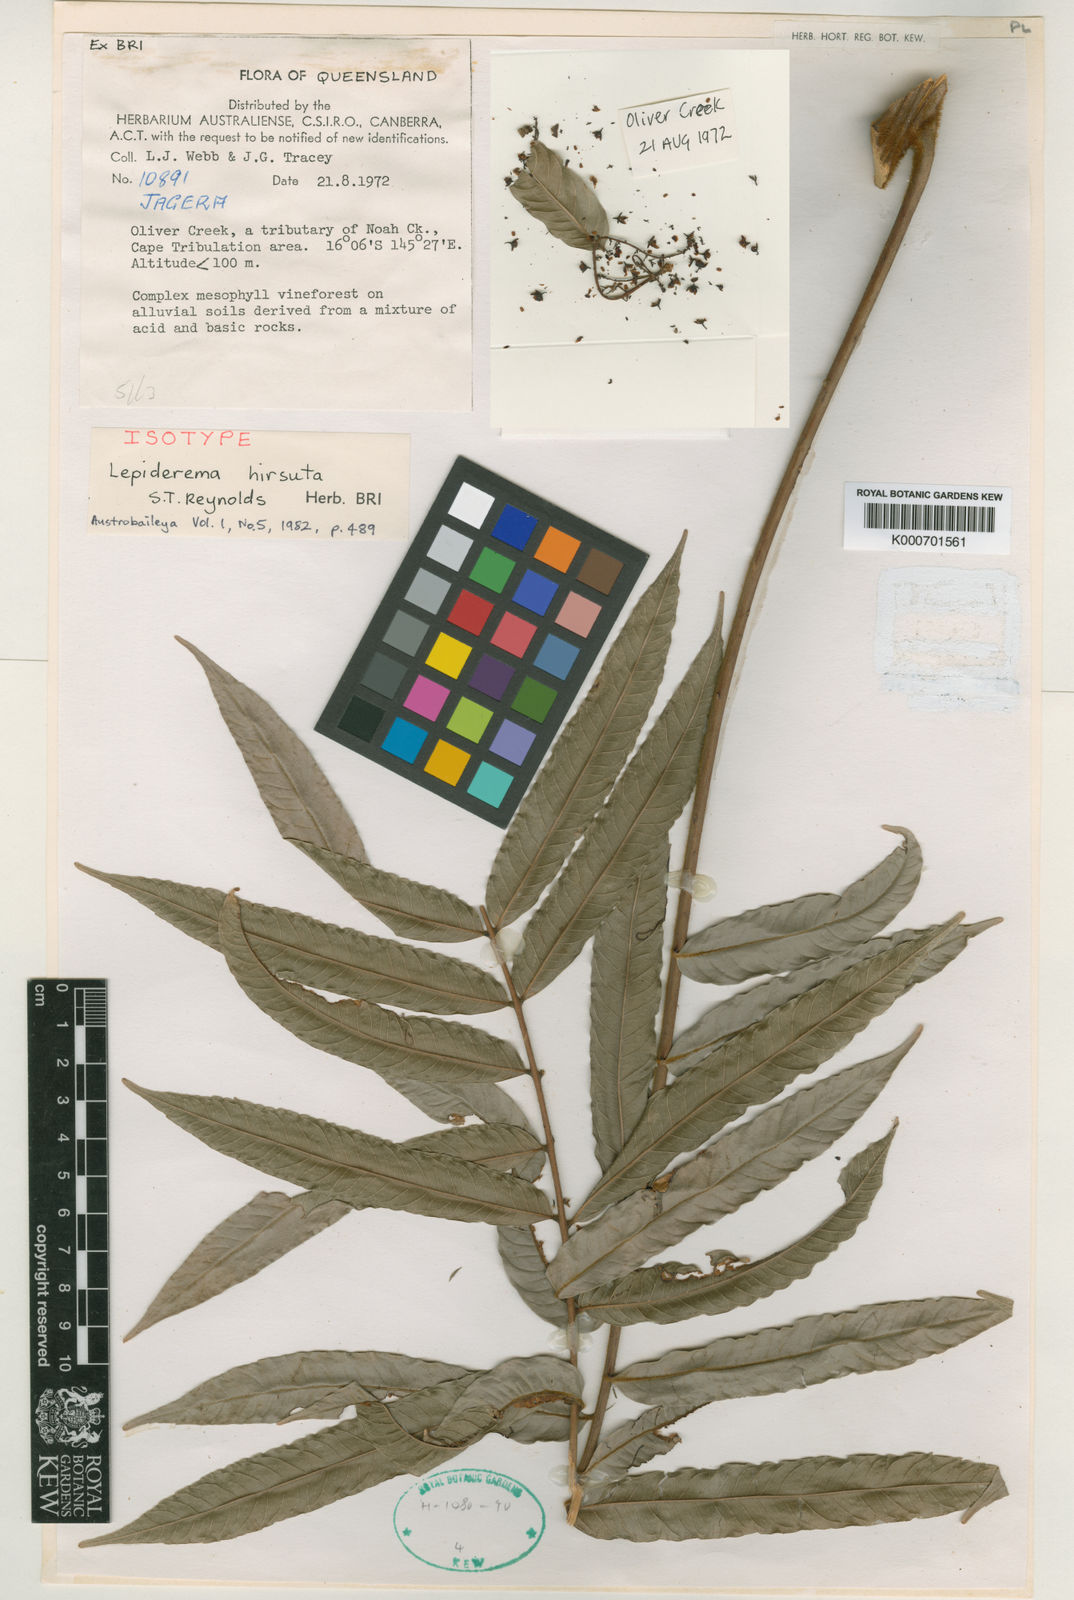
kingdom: Plantae
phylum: Tracheophyta
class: Magnoliopsida
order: Sapindales
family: Sapindaceae
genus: Lepiderema
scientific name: Lepiderema hirsuta
